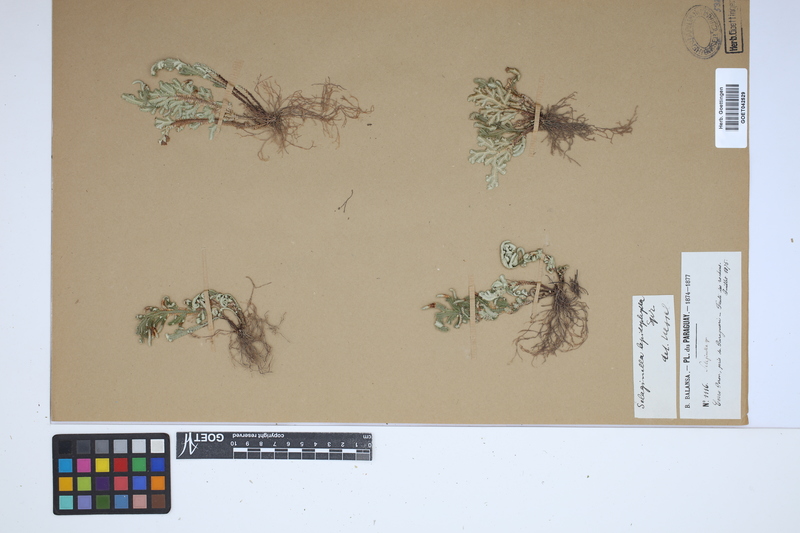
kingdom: Plantae
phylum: Tracheophyta
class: Lycopodiopsida
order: Selaginellales
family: Selaginellaceae
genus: Selaginella
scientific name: Selaginella lepidophylla
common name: Rose-of-jericho
